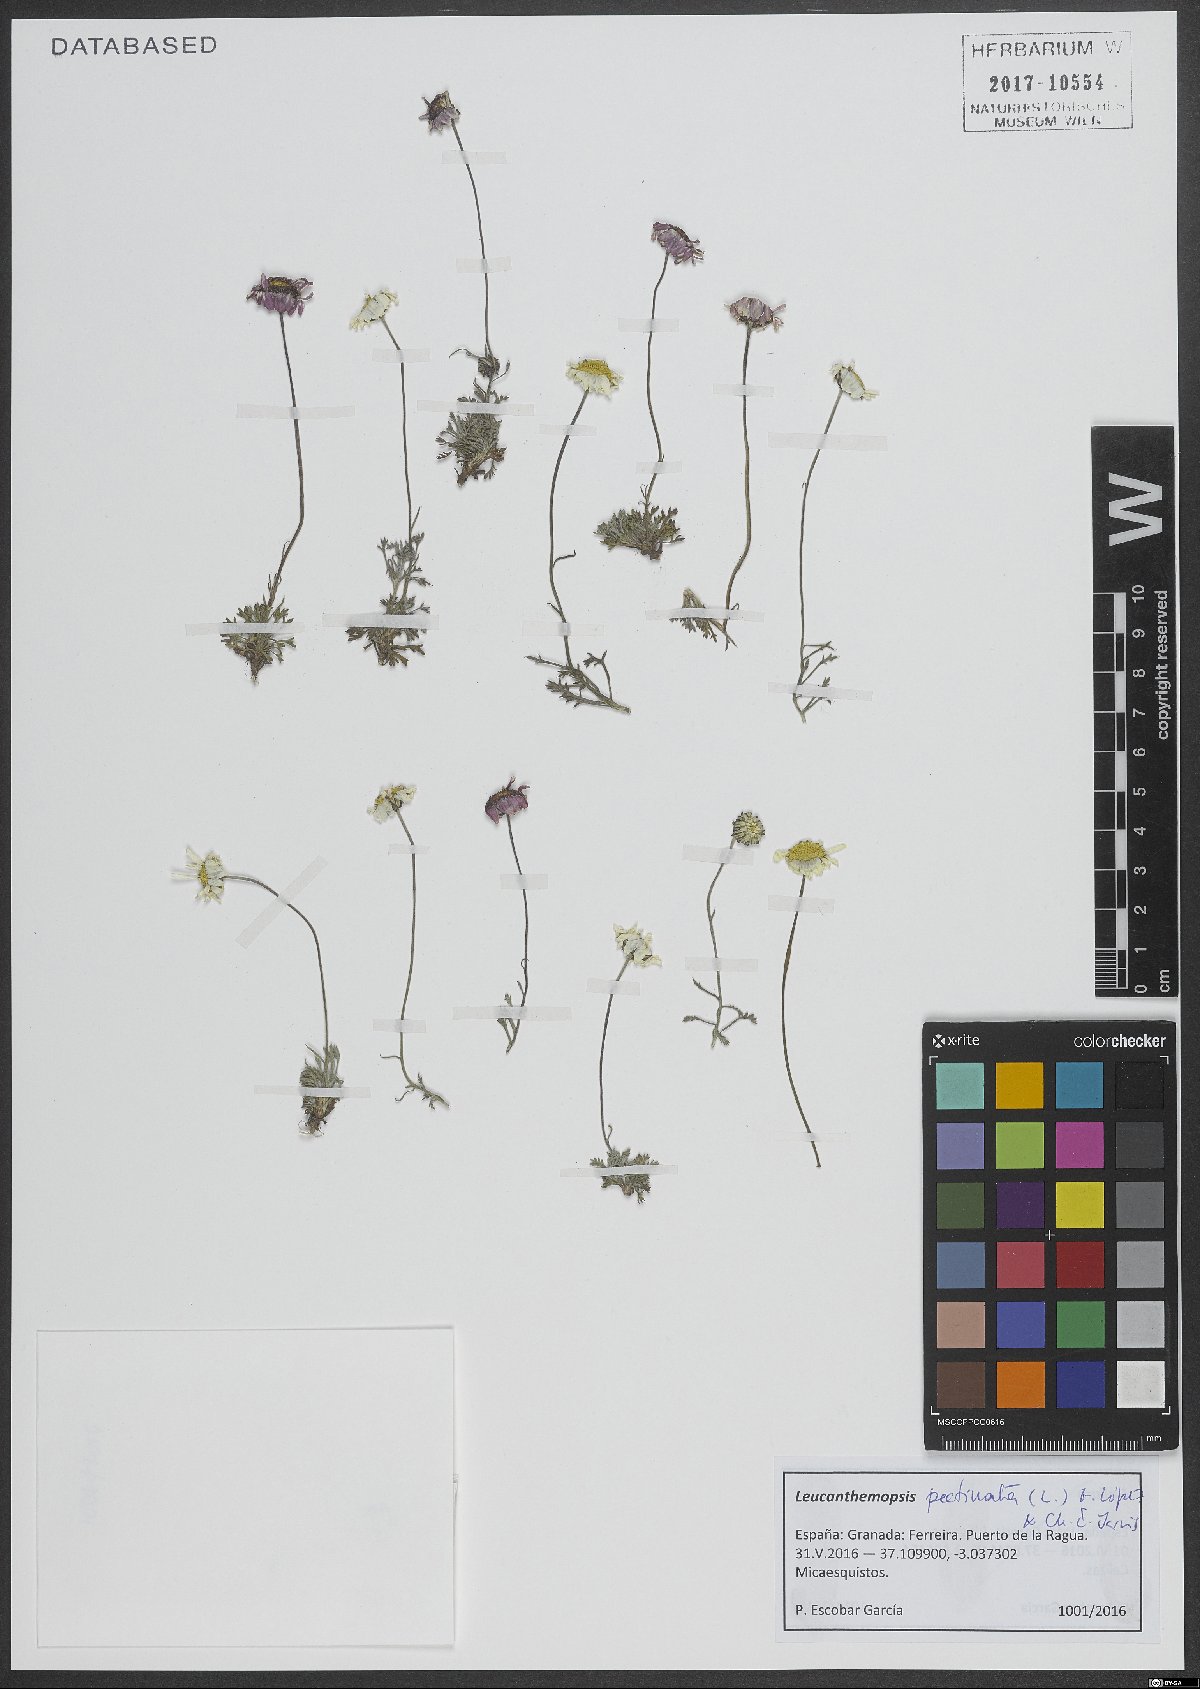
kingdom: Plantae
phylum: Tracheophyta
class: Magnoliopsida
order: Asterales
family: Asteraceae
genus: Leucanthemopsis
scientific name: Leucanthemopsis pectinata
